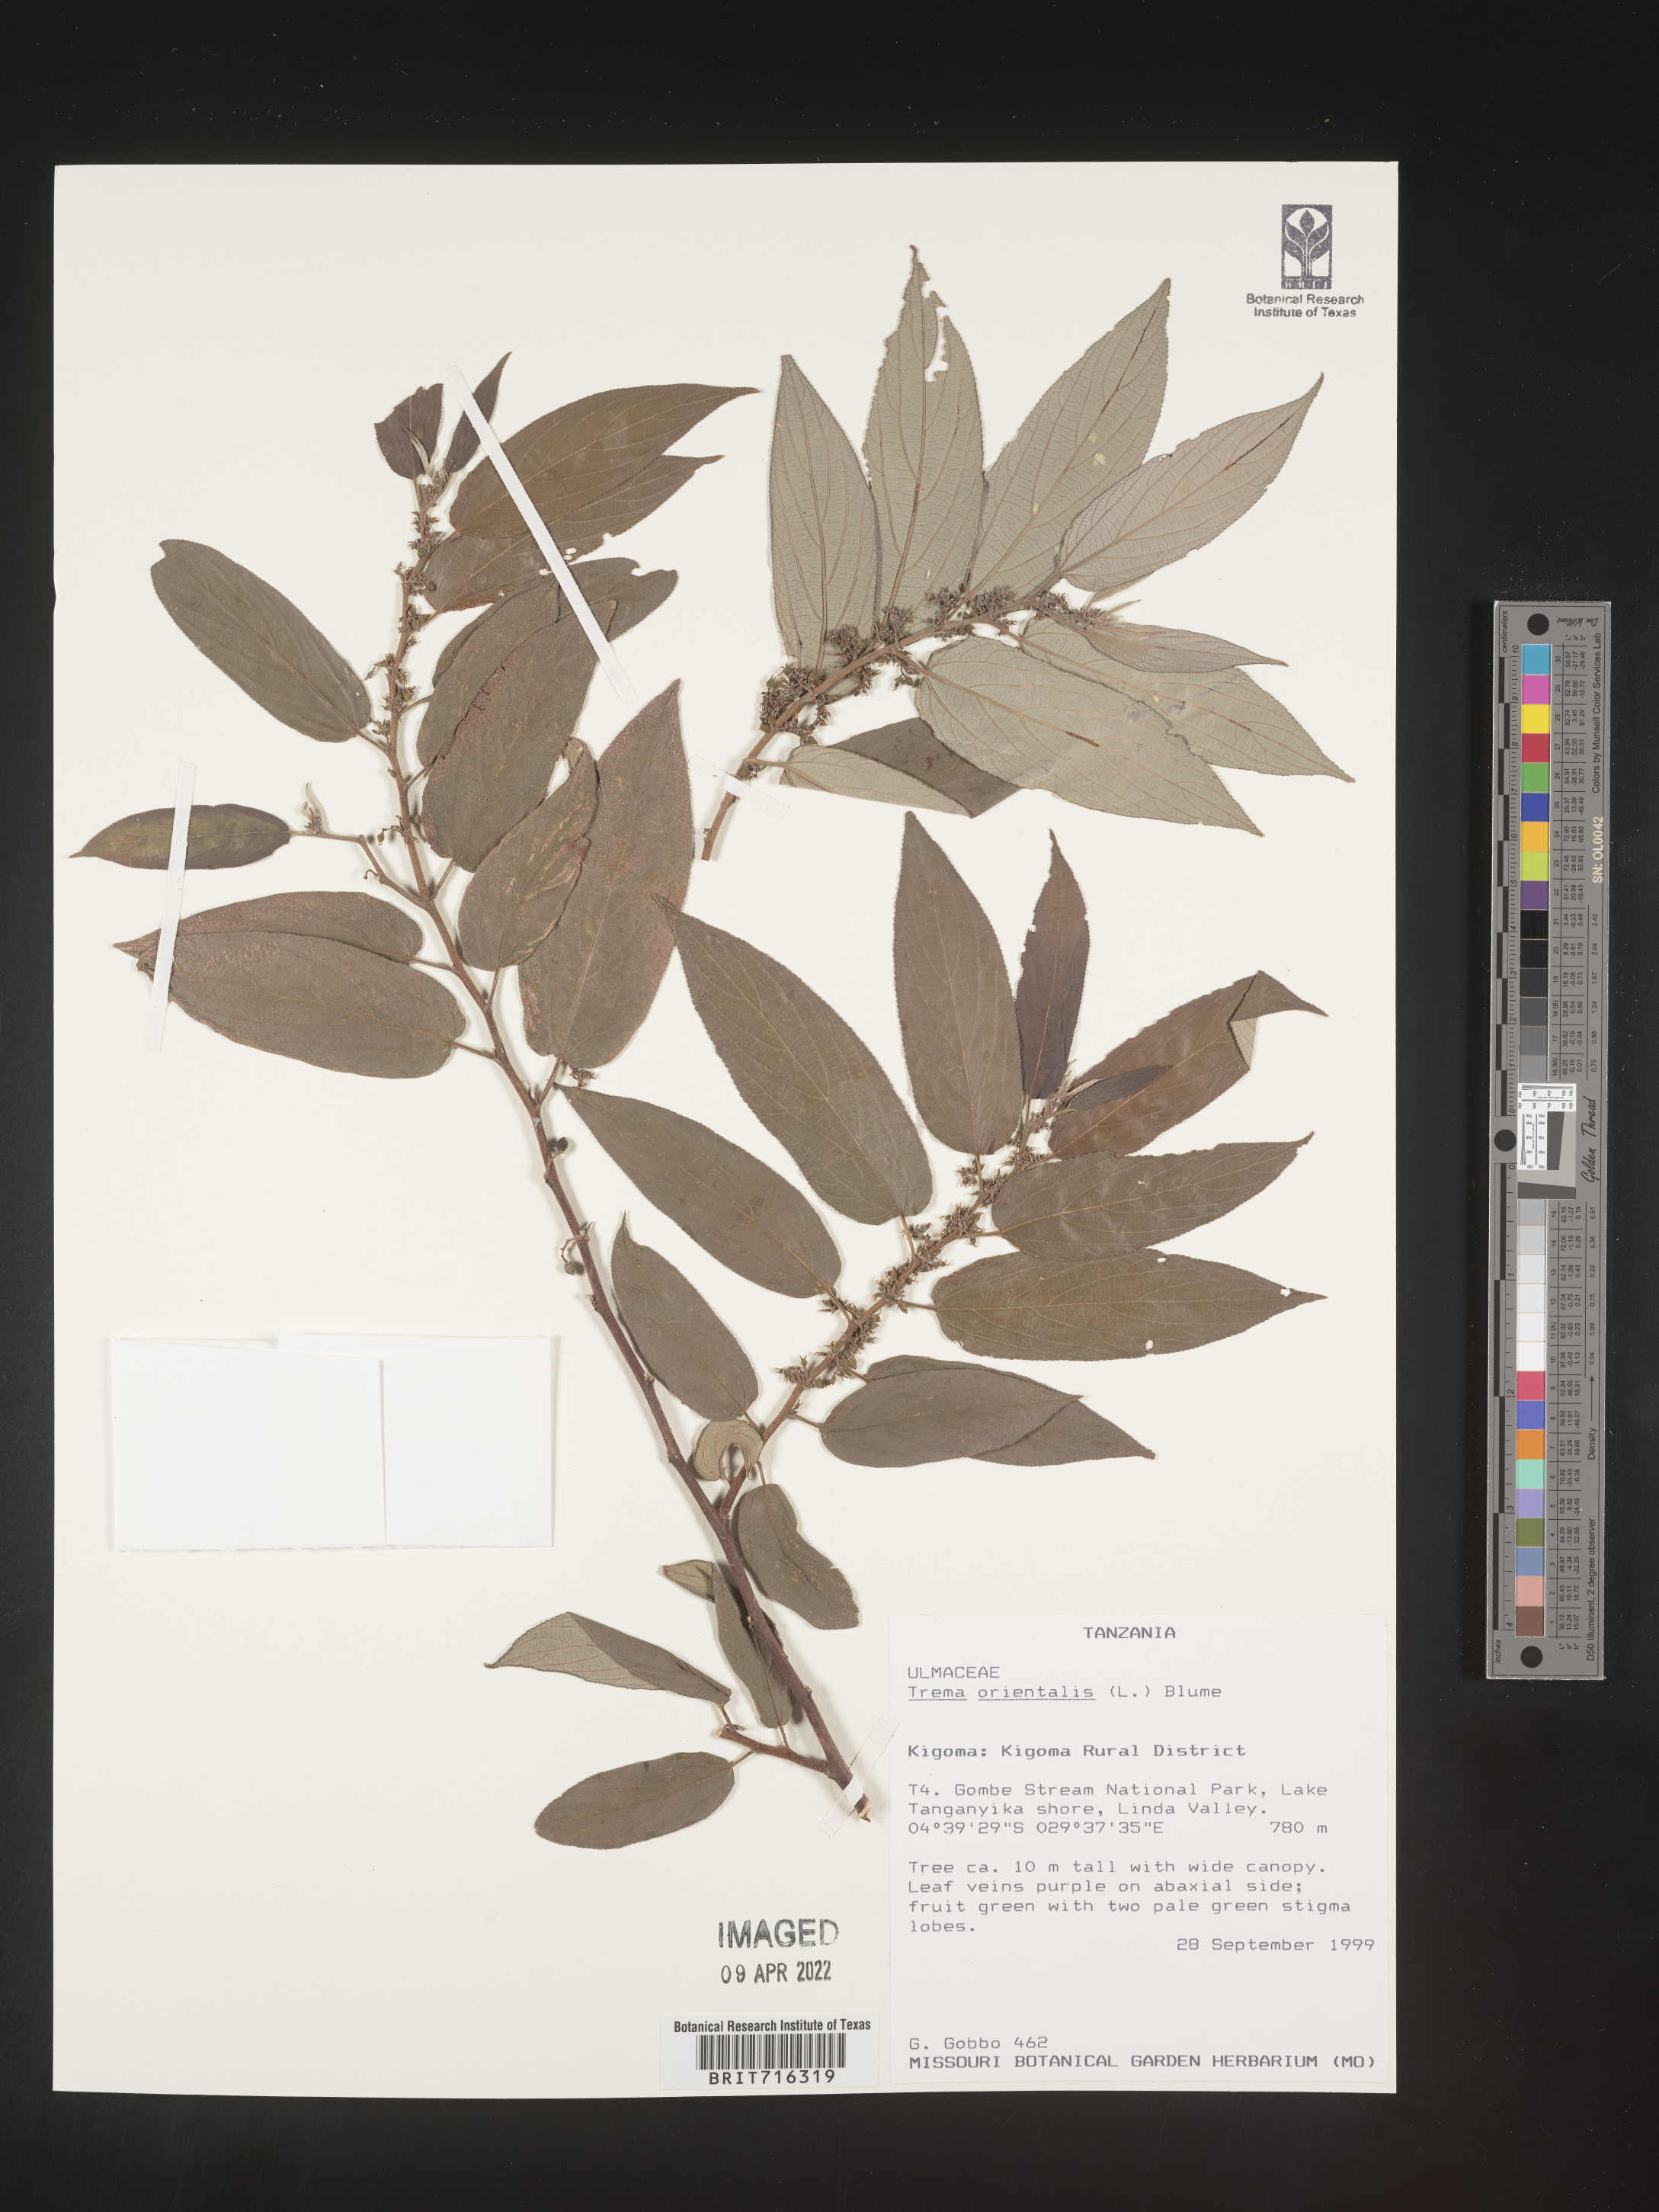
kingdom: Plantae
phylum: Tracheophyta
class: Magnoliopsida
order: Rosales
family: Cannabaceae
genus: Trema
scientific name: Trema
